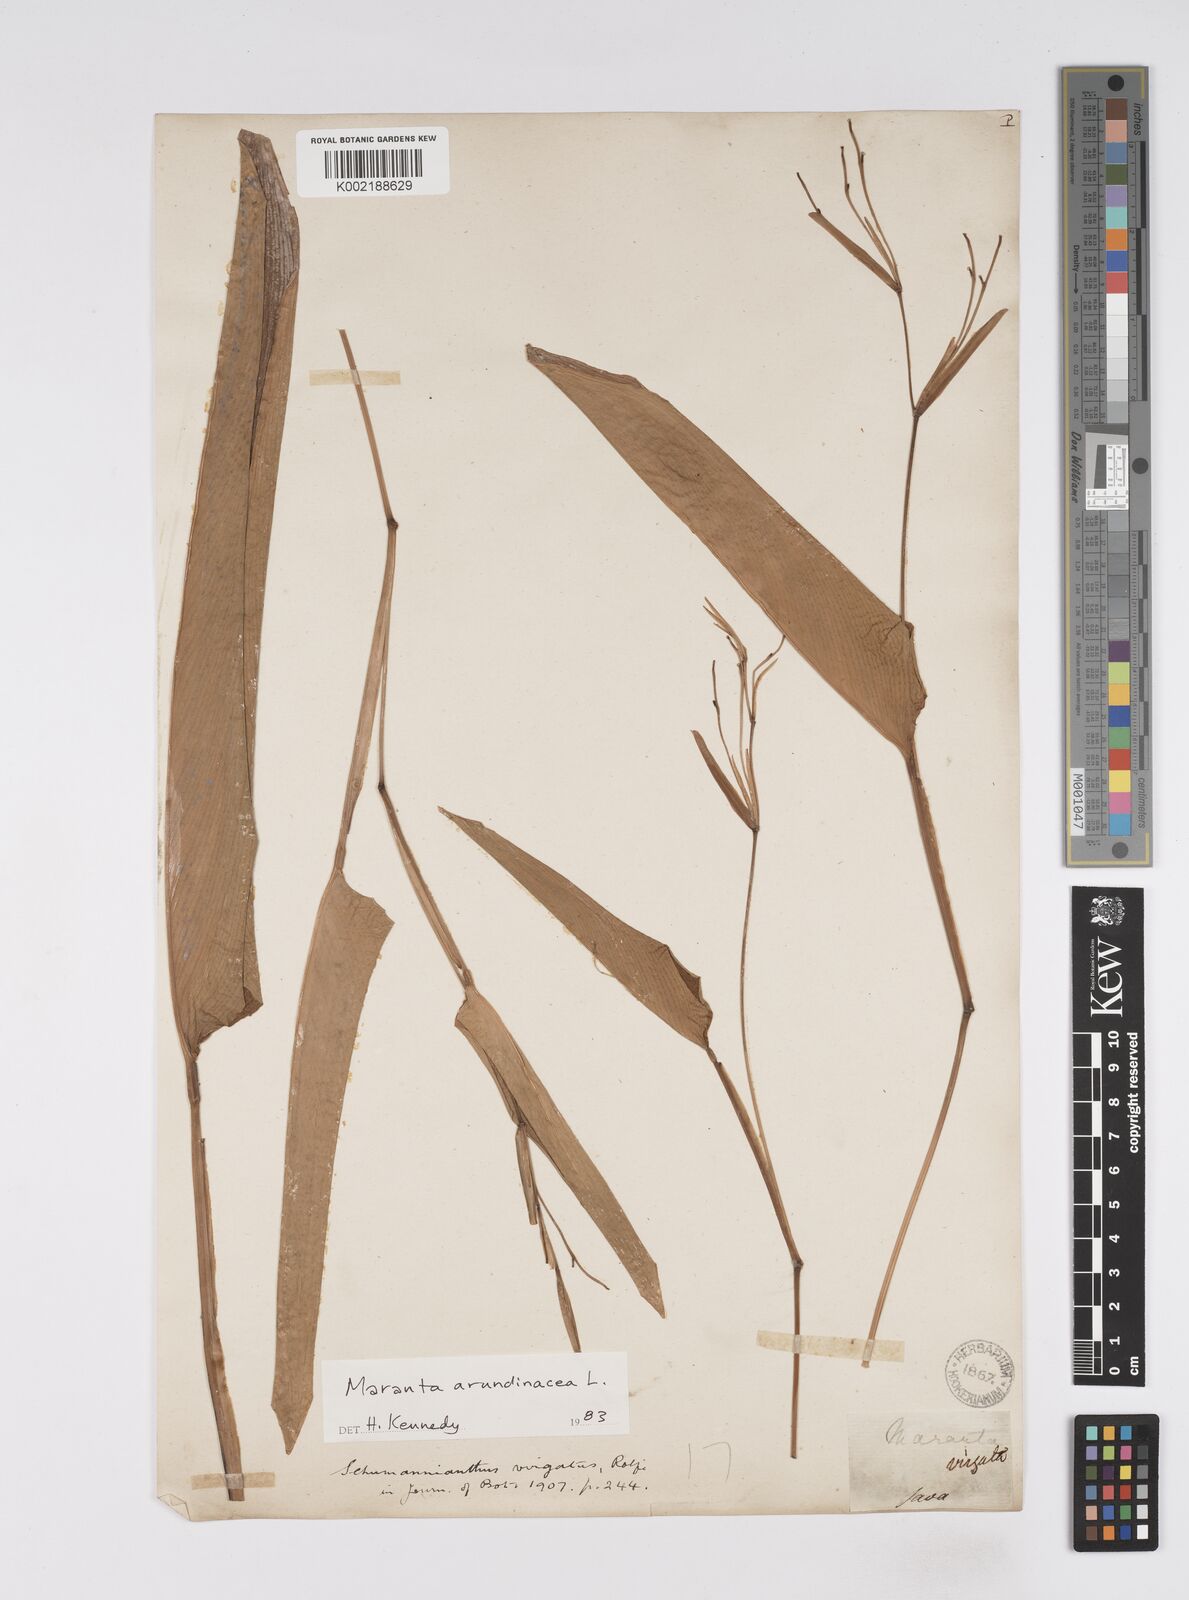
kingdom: Plantae
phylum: Tracheophyta
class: Liliopsida
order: Zingiberales
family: Marantaceae
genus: Maranta
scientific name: Maranta arundinacea
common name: Arrowroot
